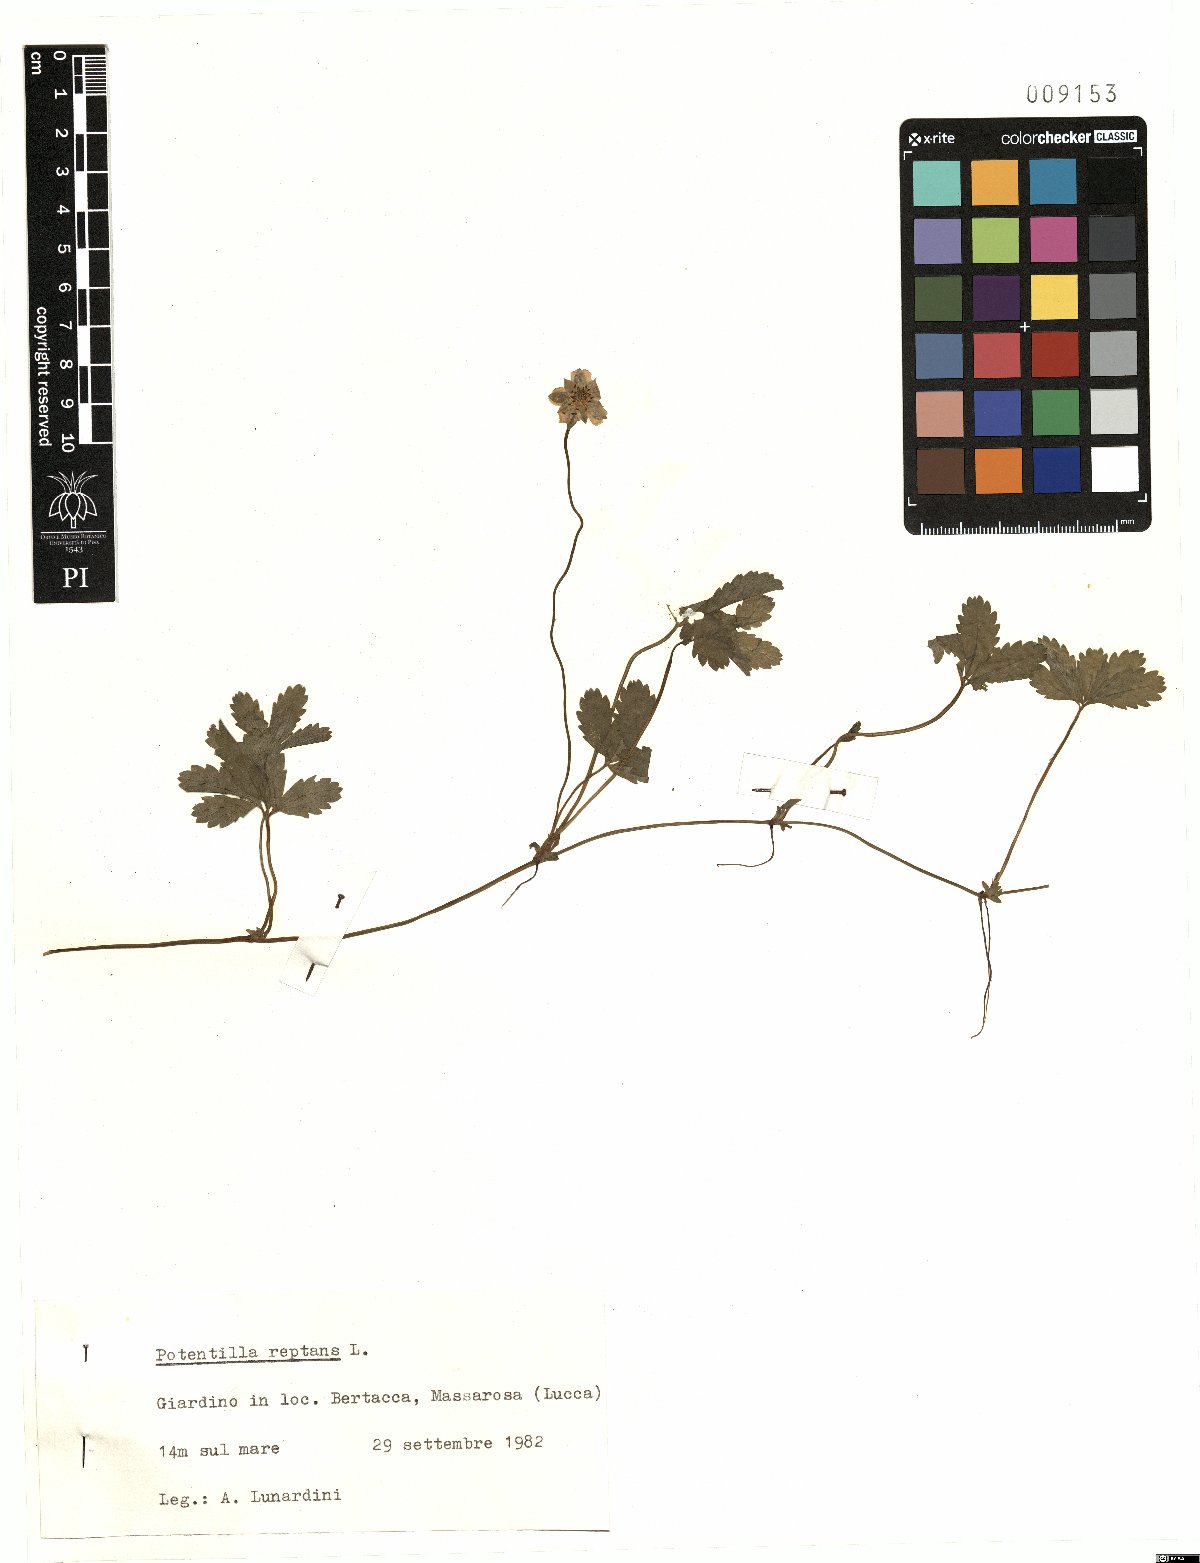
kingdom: Plantae
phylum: Tracheophyta
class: Magnoliopsida
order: Rosales
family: Rosaceae
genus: Potentilla
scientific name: Potentilla reptans
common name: Creeping cinquefoil
